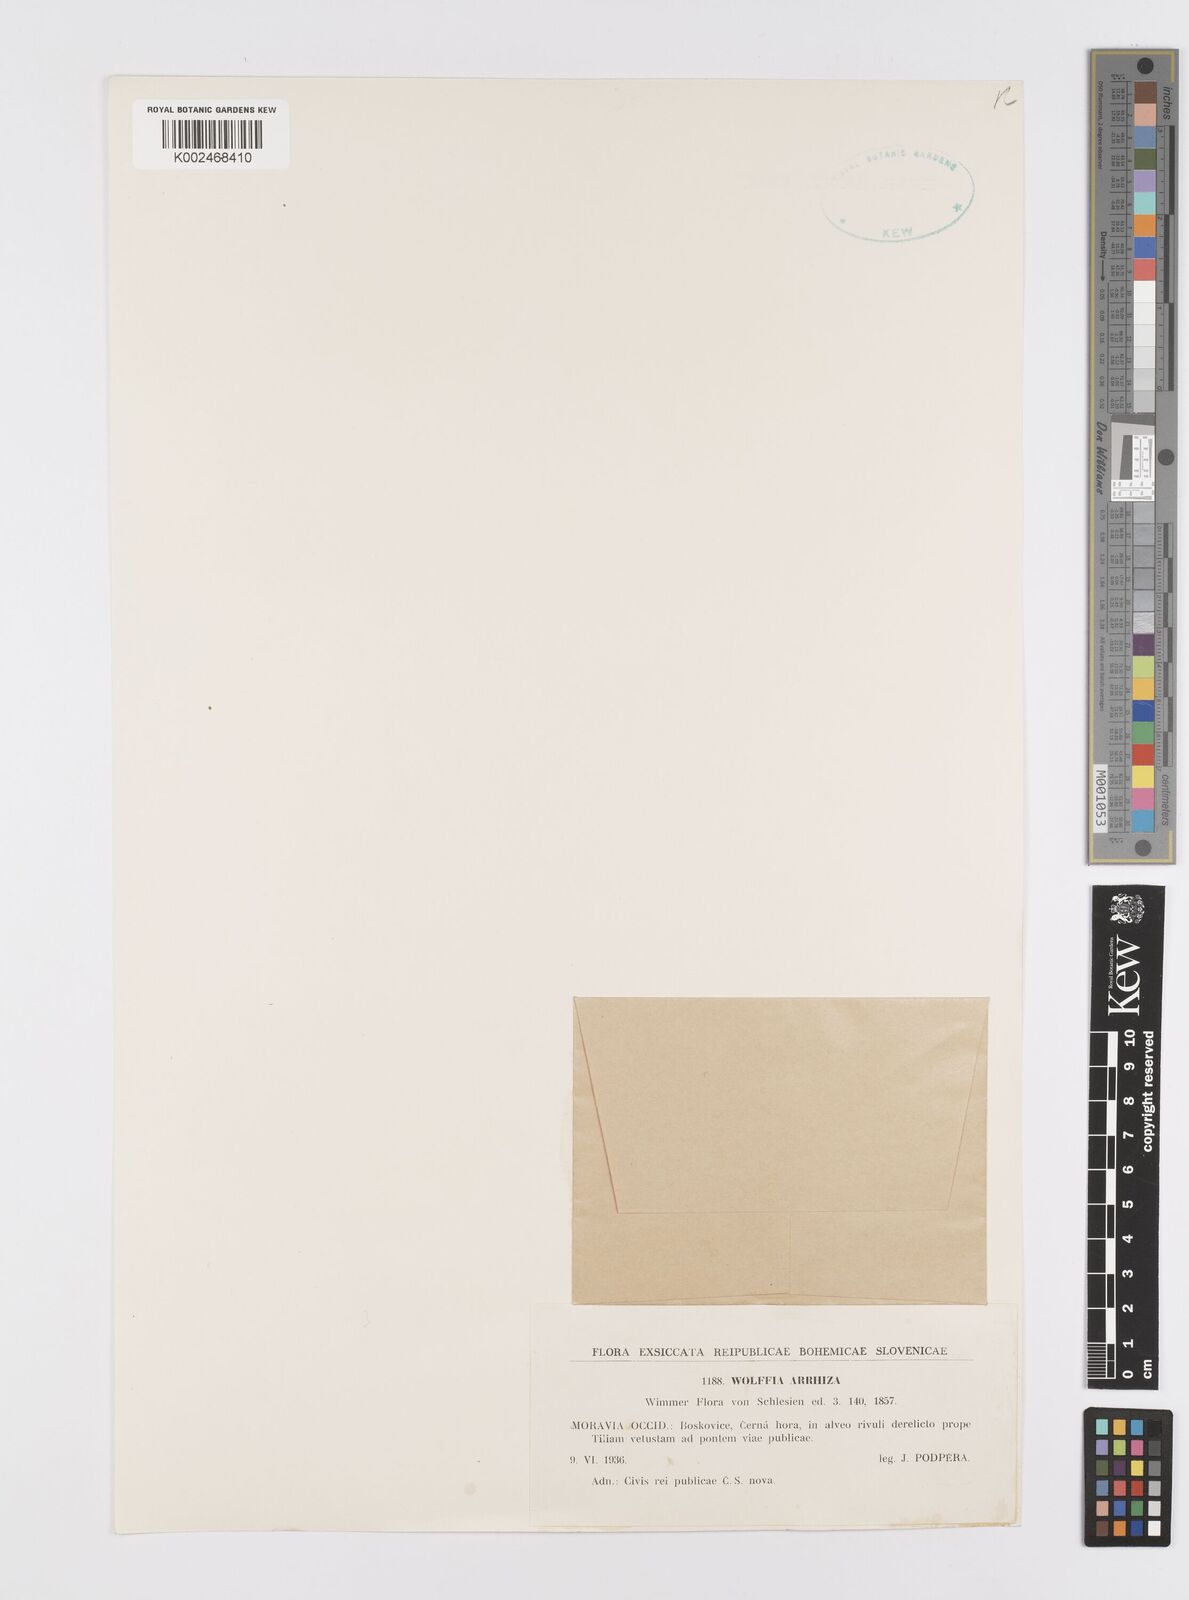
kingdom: Plantae
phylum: Tracheophyta
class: Liliopsida
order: Alismatales
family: Araceae
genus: Wolffia
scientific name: Wolffia arrhiza
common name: Rootless duckweed
